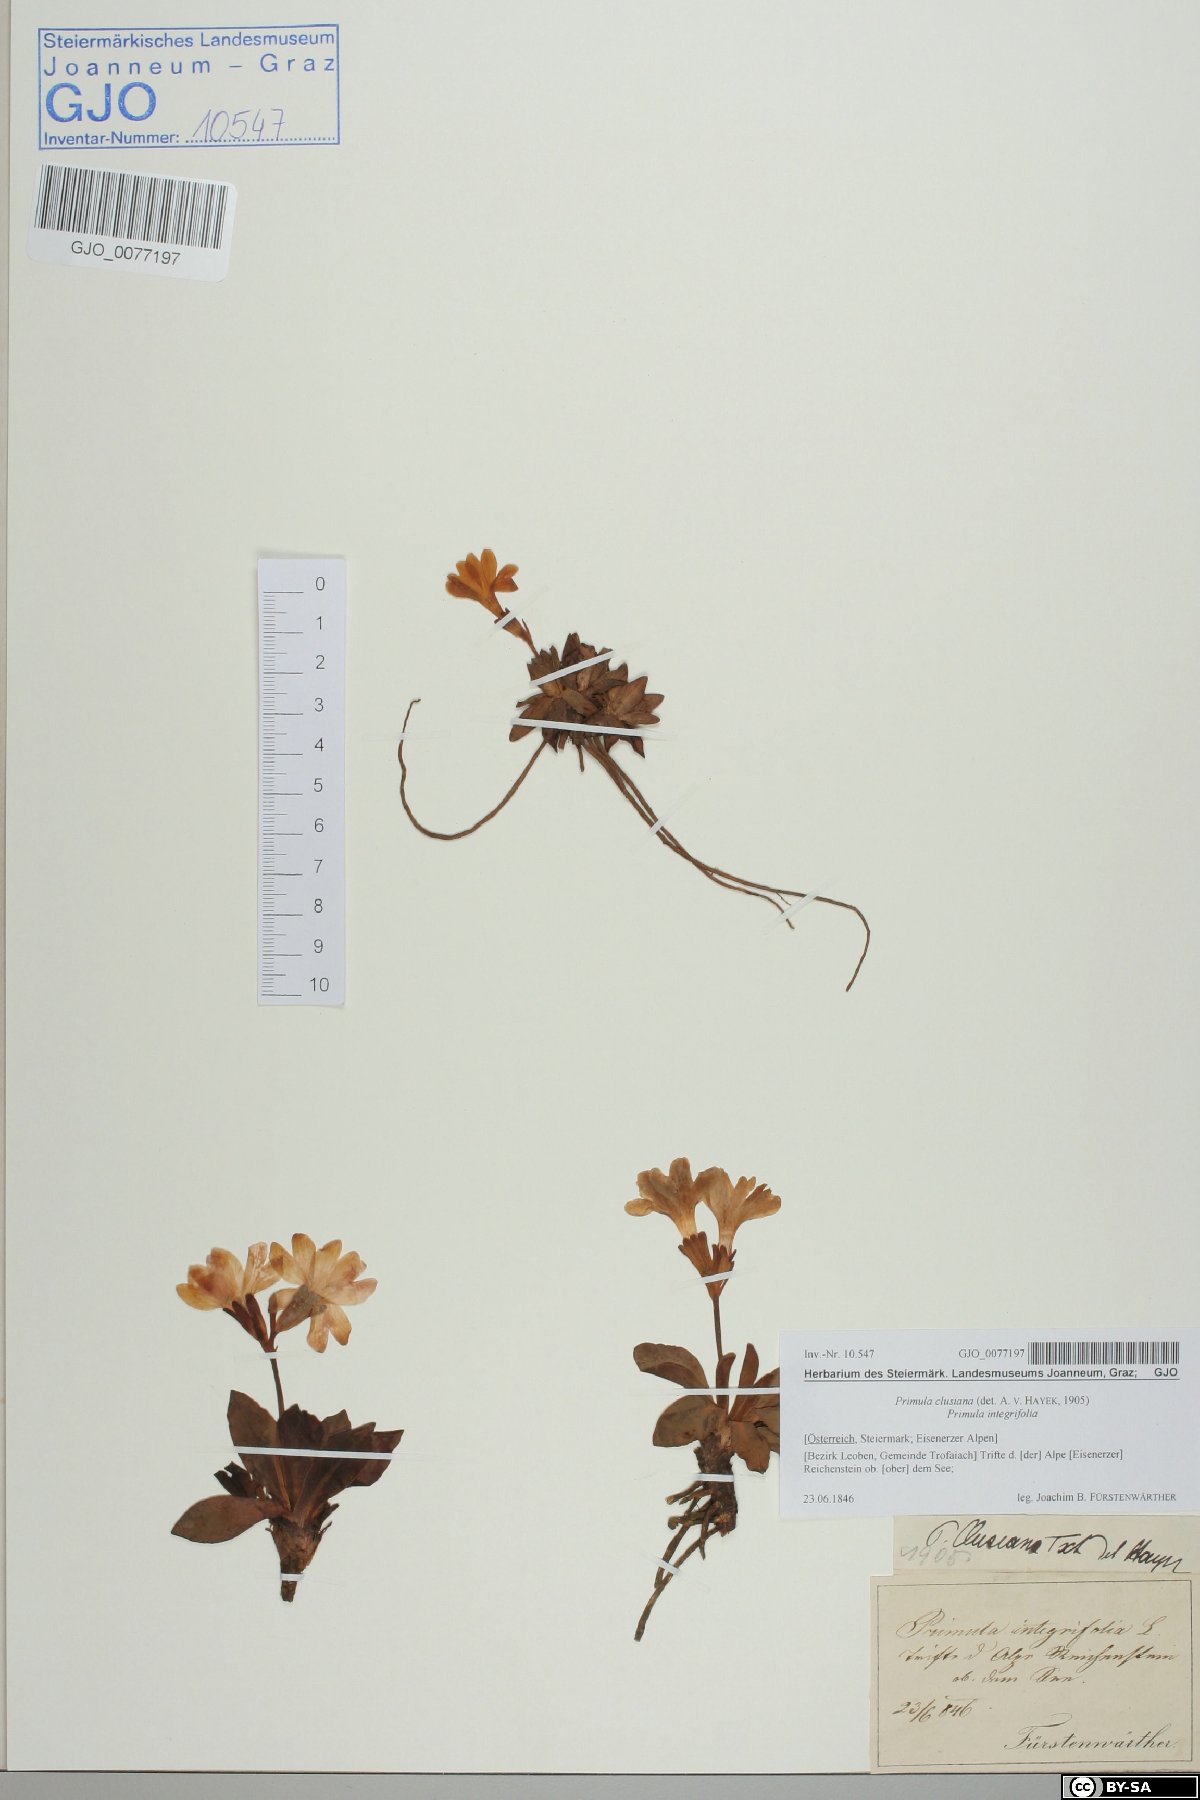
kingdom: Plantae
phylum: Tracheophyta
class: Magnoliopsida
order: Ericales
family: Primulaceae
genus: Primula
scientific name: Primula clusiana
